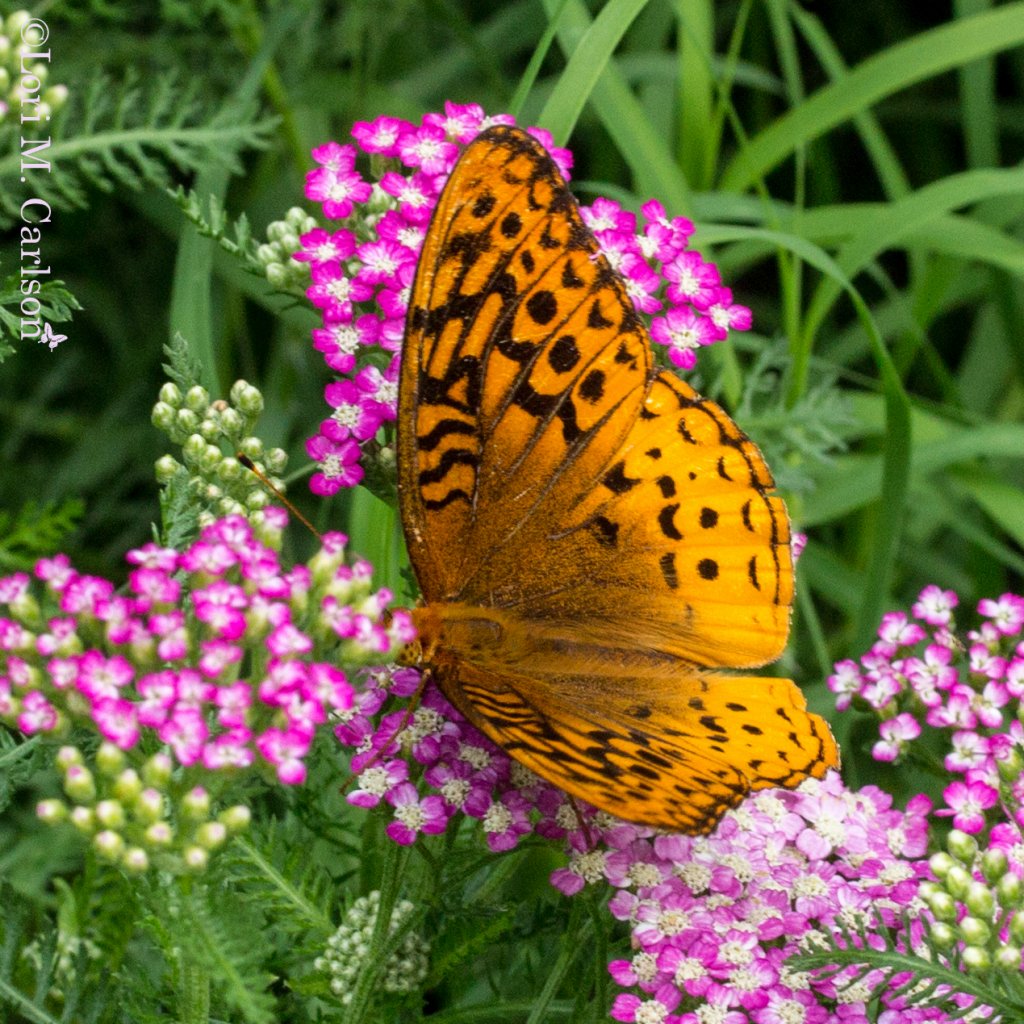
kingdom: Animalia
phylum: Arthropoda
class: Insecta
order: Lepidoptera
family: Nymphalidae
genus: Speyeria
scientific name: Speyeria cybele
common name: Great Spangled Fritillary
